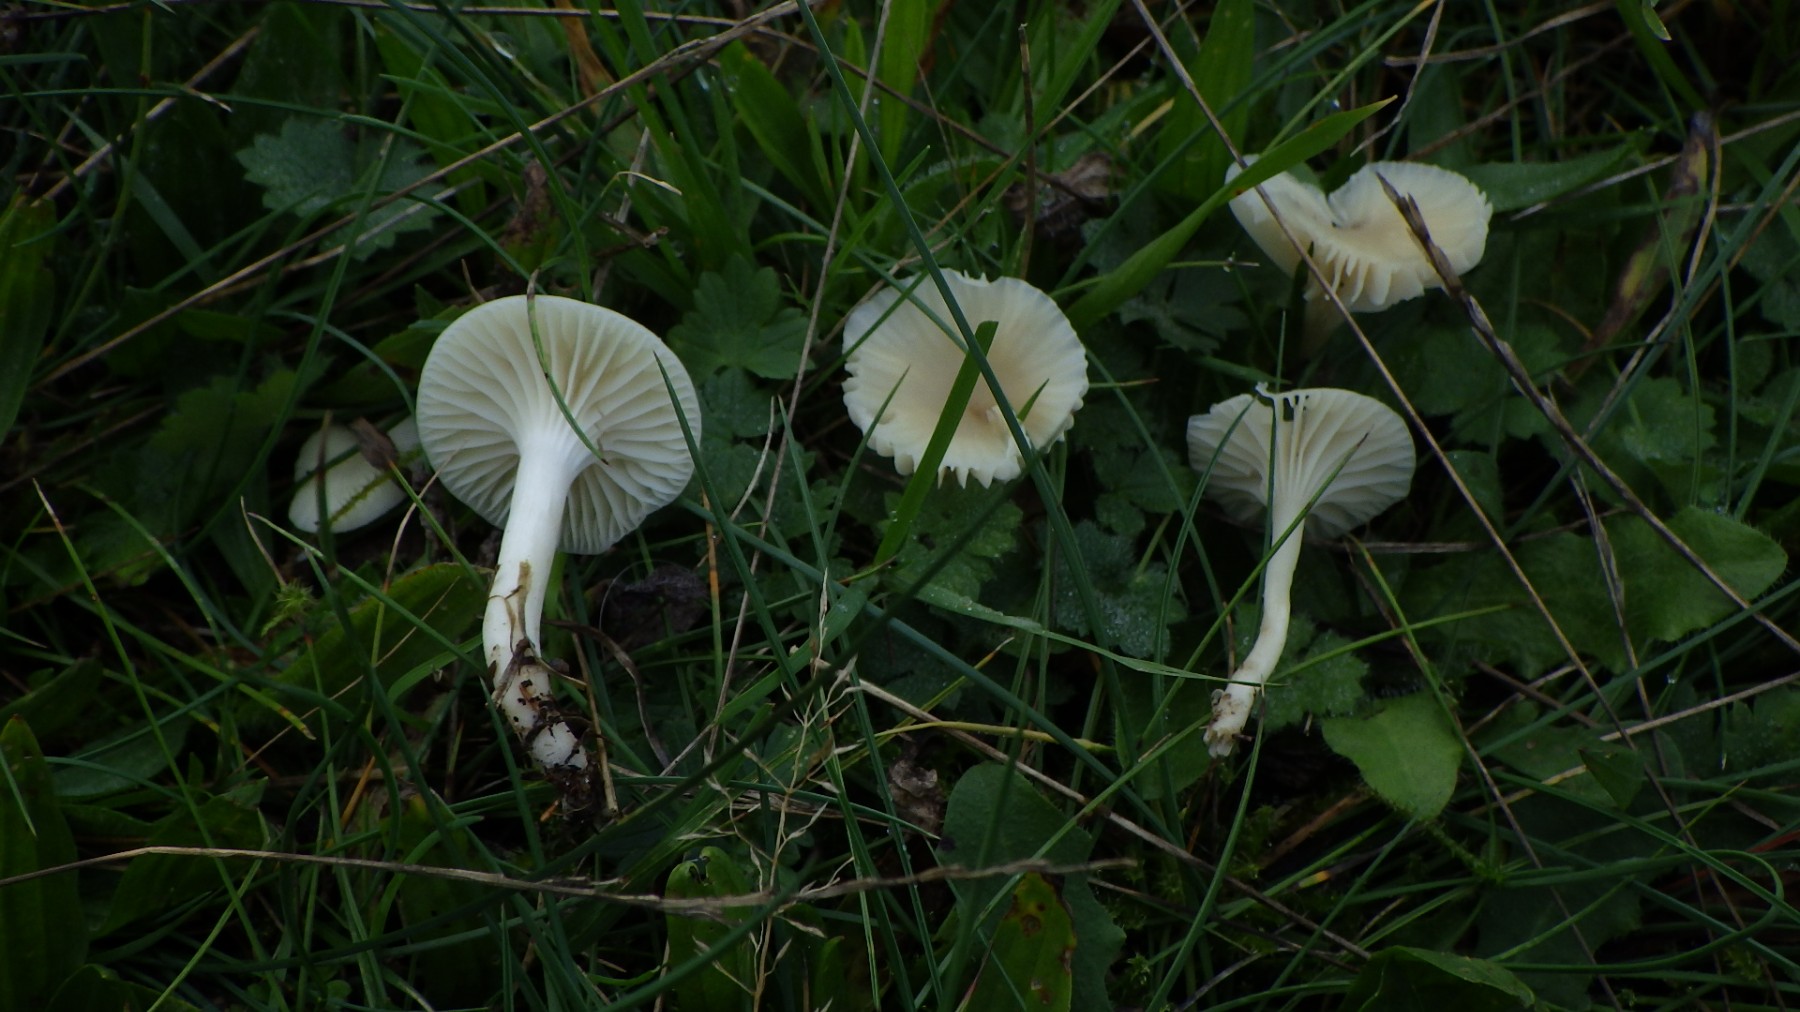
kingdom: Fungi
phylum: Basidiomycota
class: Agaricomycetes
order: Agaricales
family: Hygrophoraceae
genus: Cuphophyllus
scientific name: Cuphophyllus virgineus
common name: snehvid vokshat
